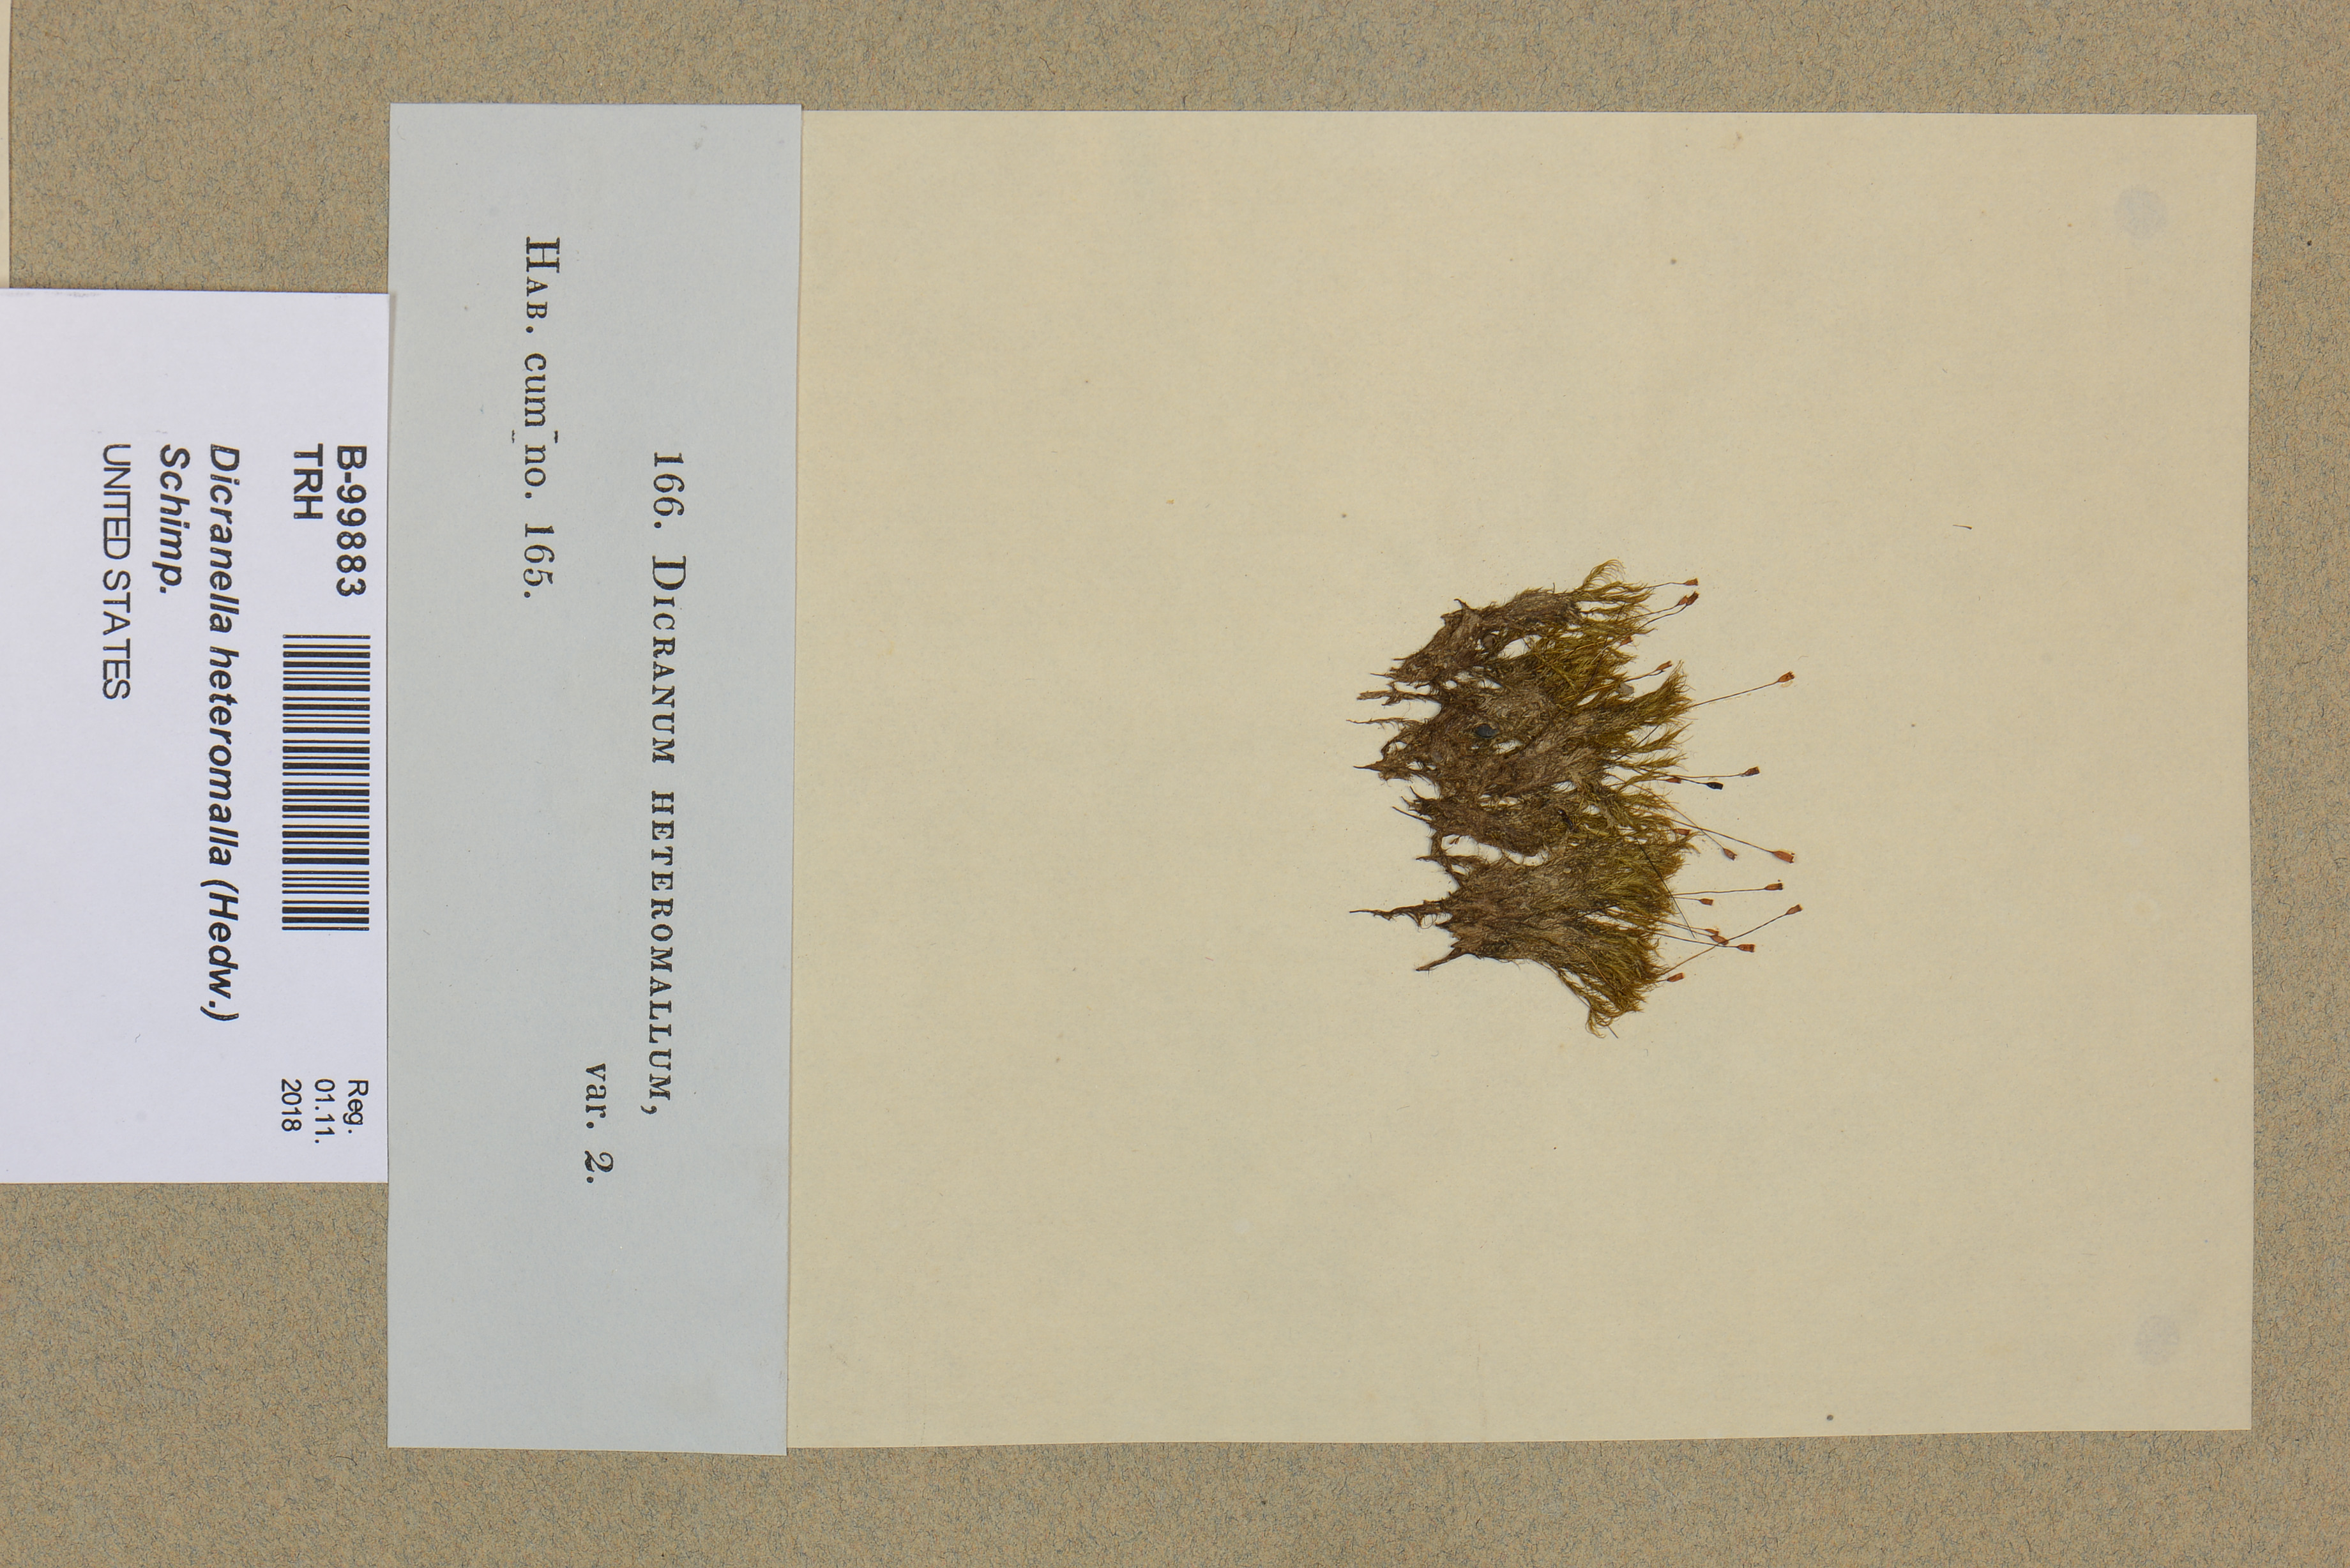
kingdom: Plantae
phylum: Bryophyta
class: Bryopsida
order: Dicranales
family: Dicranellaceae
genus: Dicranella
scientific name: Dicranella heteromalla
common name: Silky forklet moss
